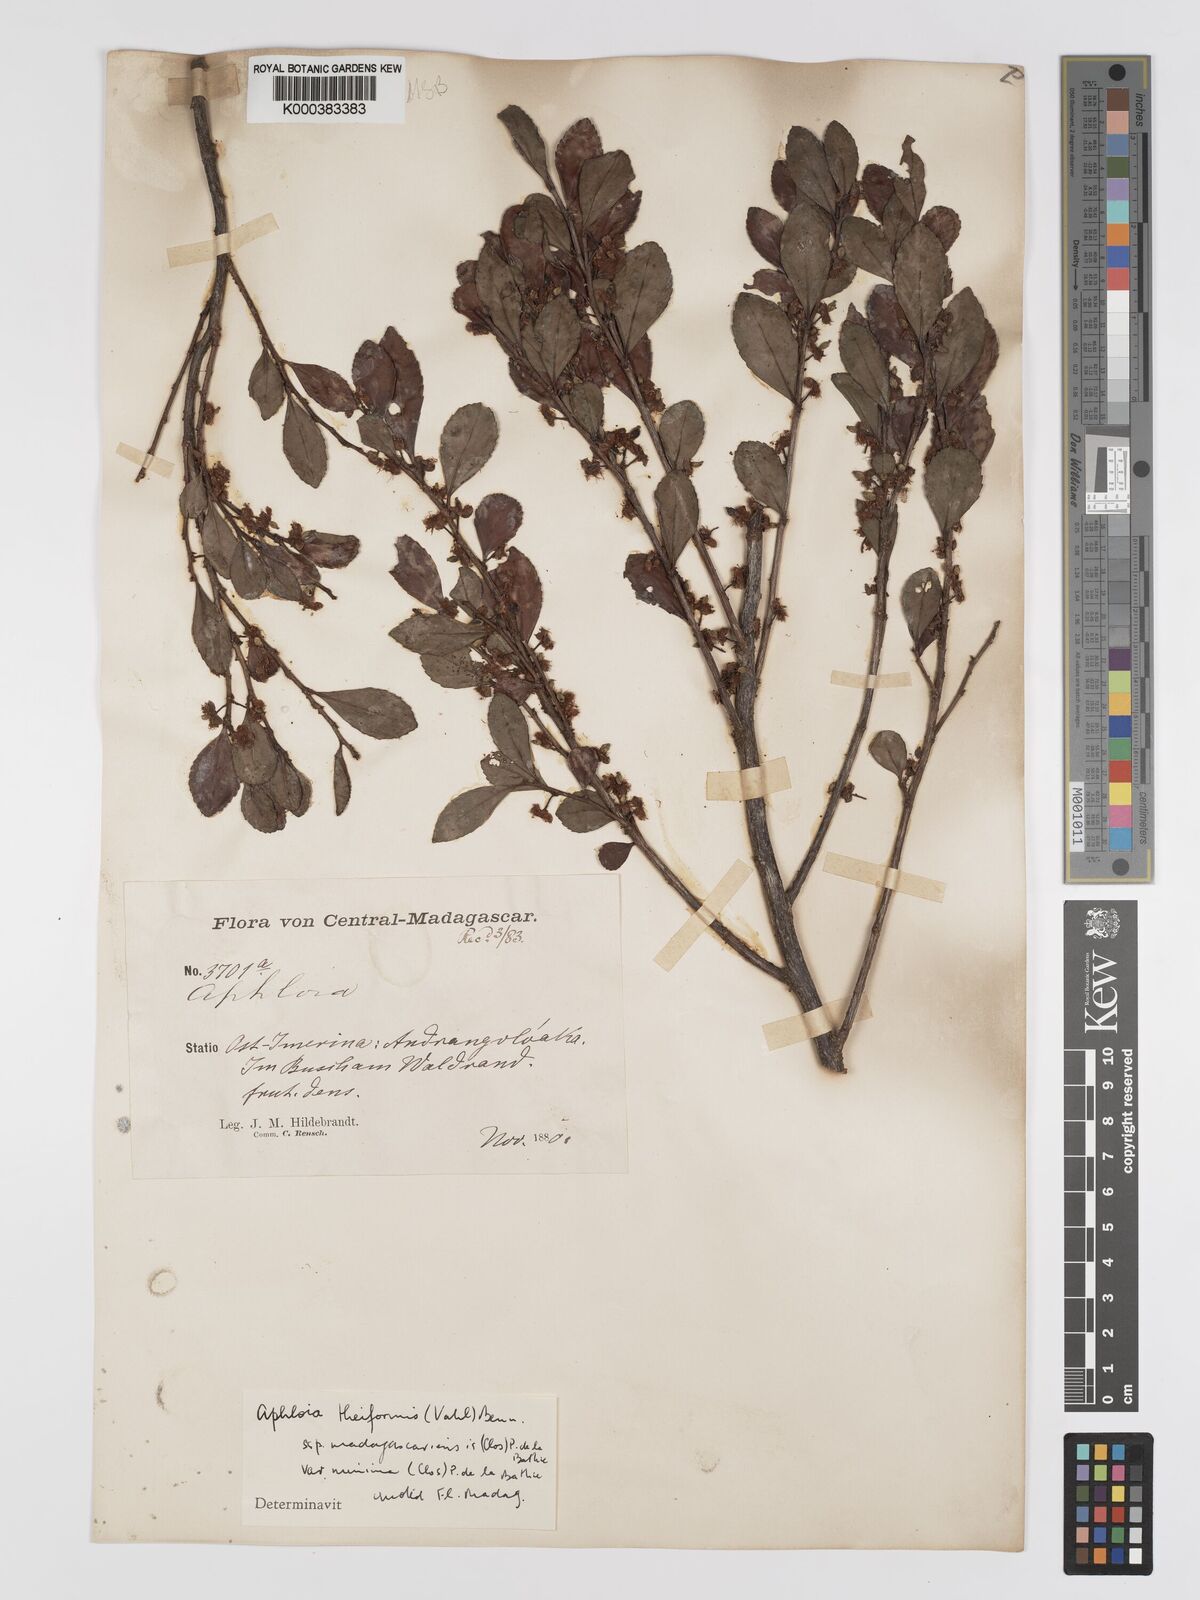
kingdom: Plantae
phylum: Tracheophyta
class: Magnoliopsida
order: Crossosomatales
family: Aphloiaceae
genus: Aphloia
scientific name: Aphloia theiformis
